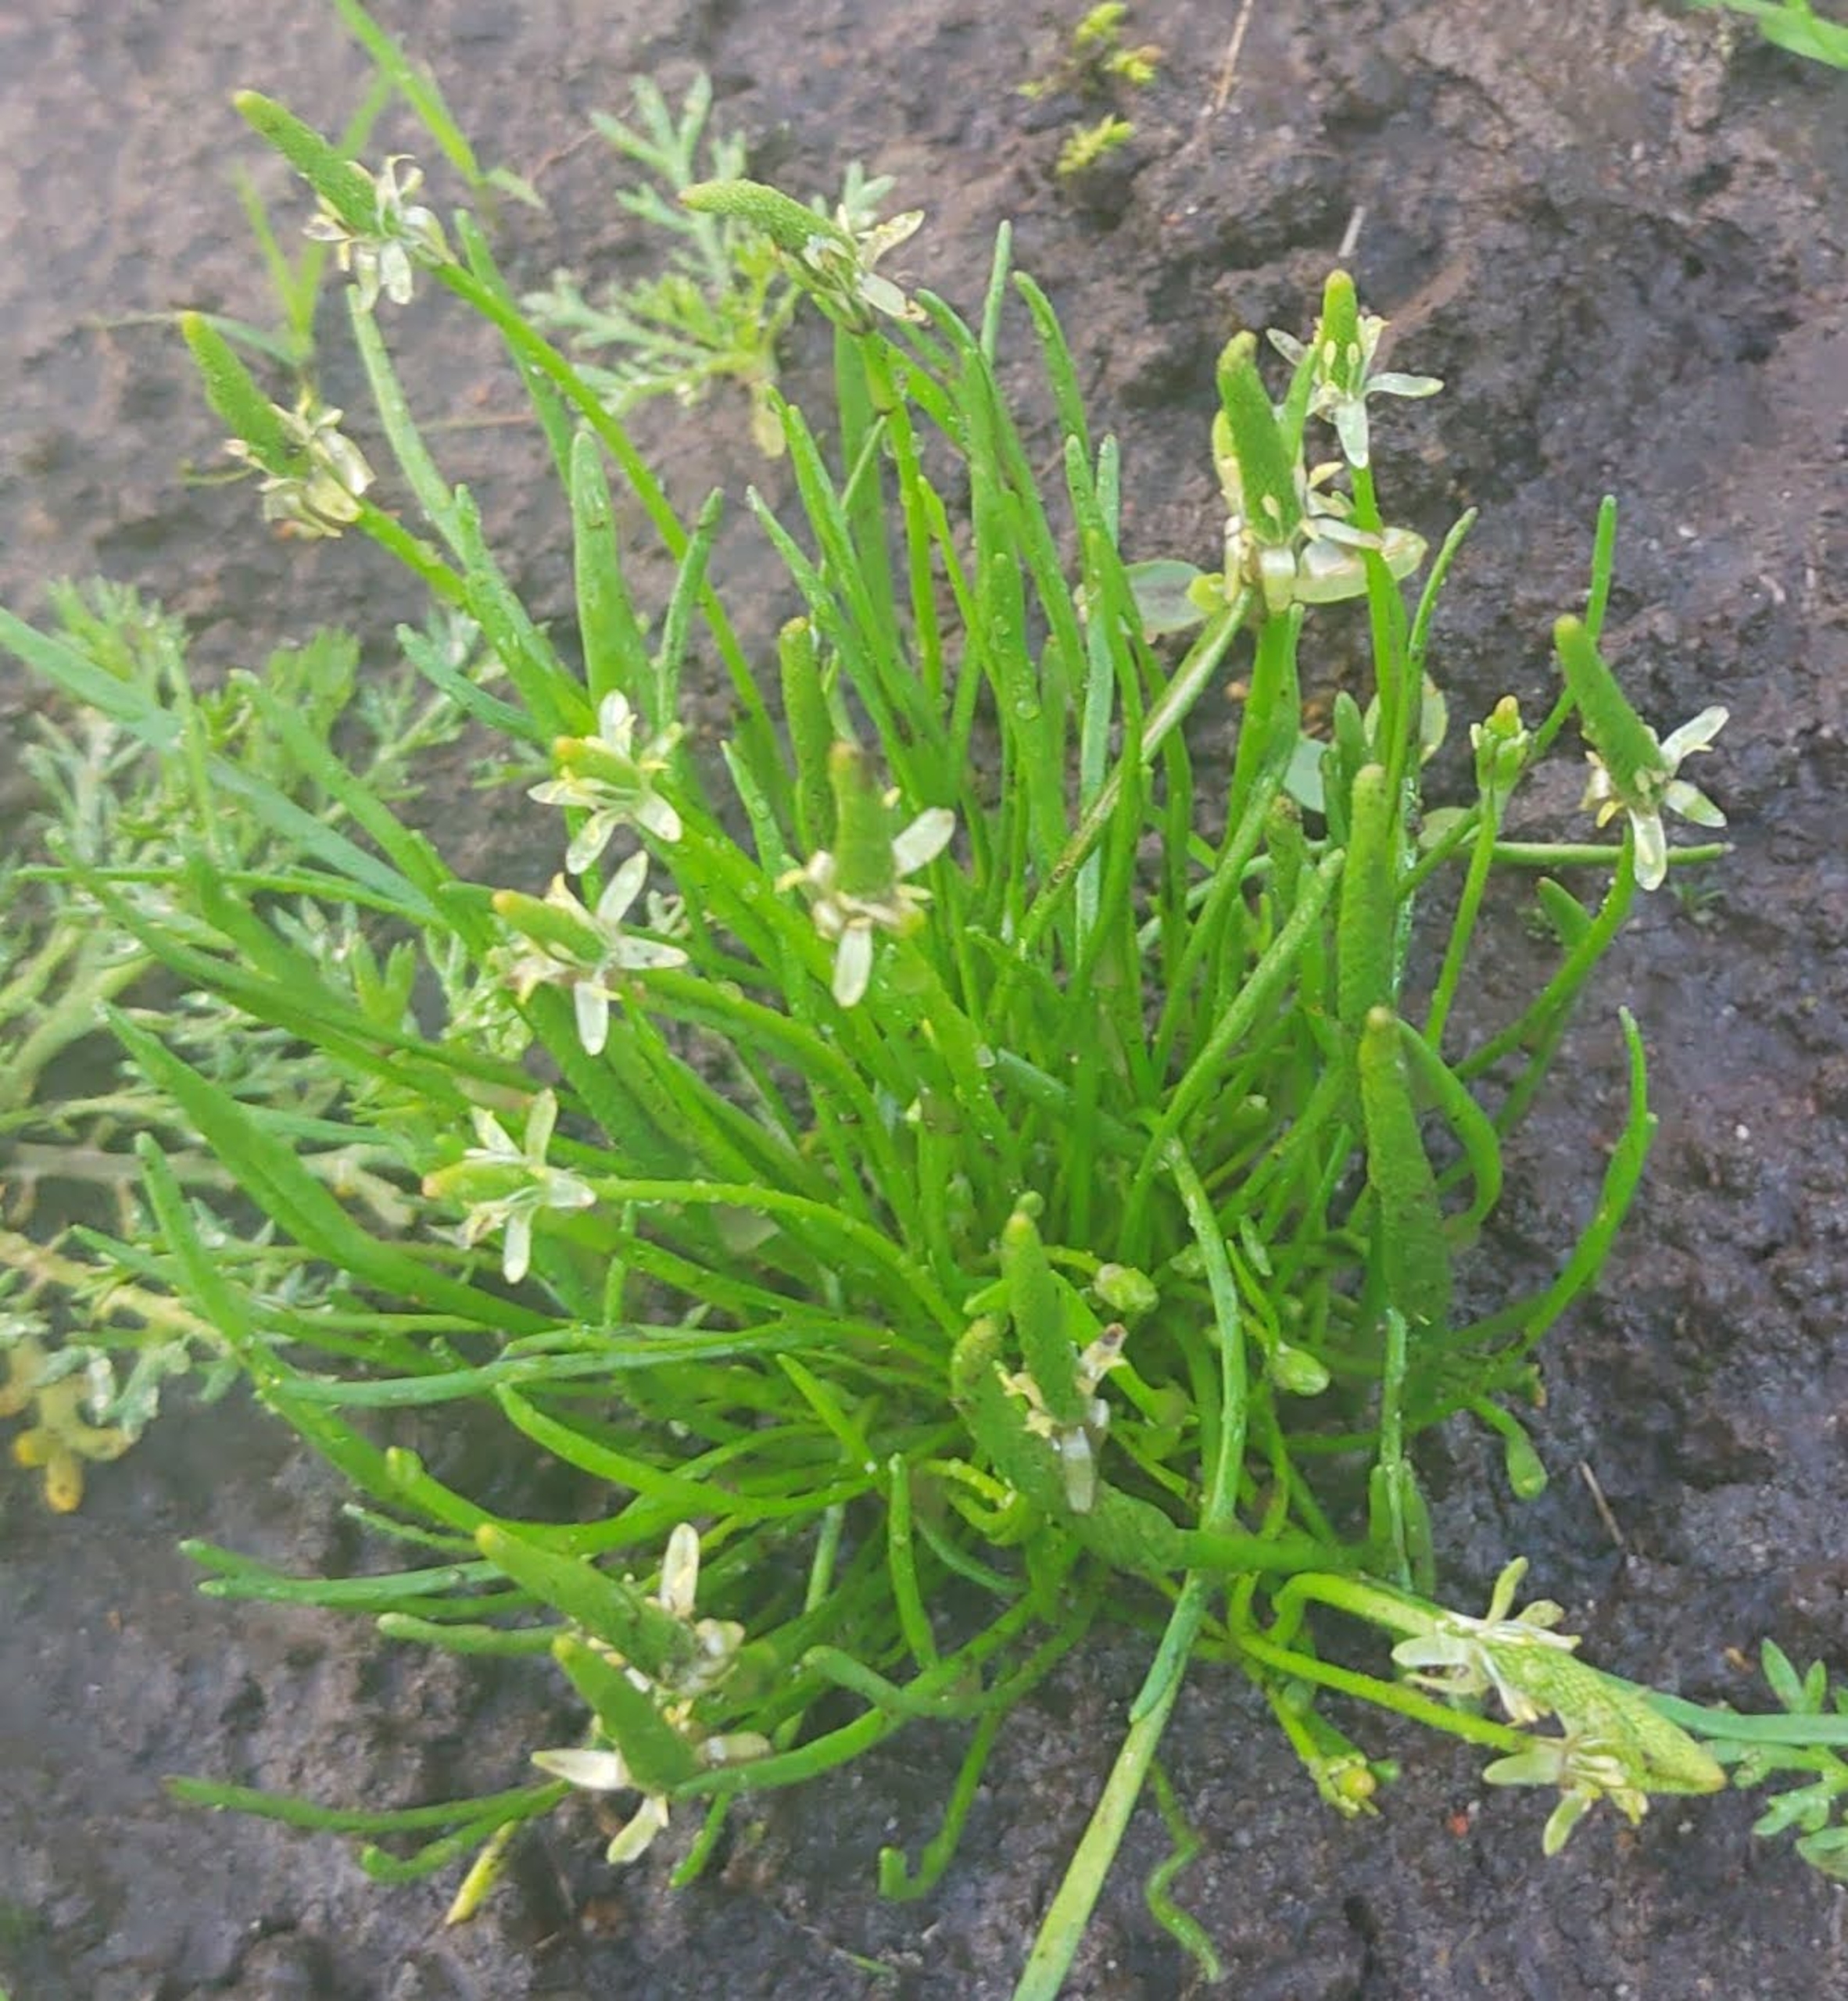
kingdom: Plantae
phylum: Tracheophyta
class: Magnoliopsida
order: Ranunculales
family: Ranunculaceae
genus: Myosurus
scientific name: Myosurus minimus
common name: Musehale
